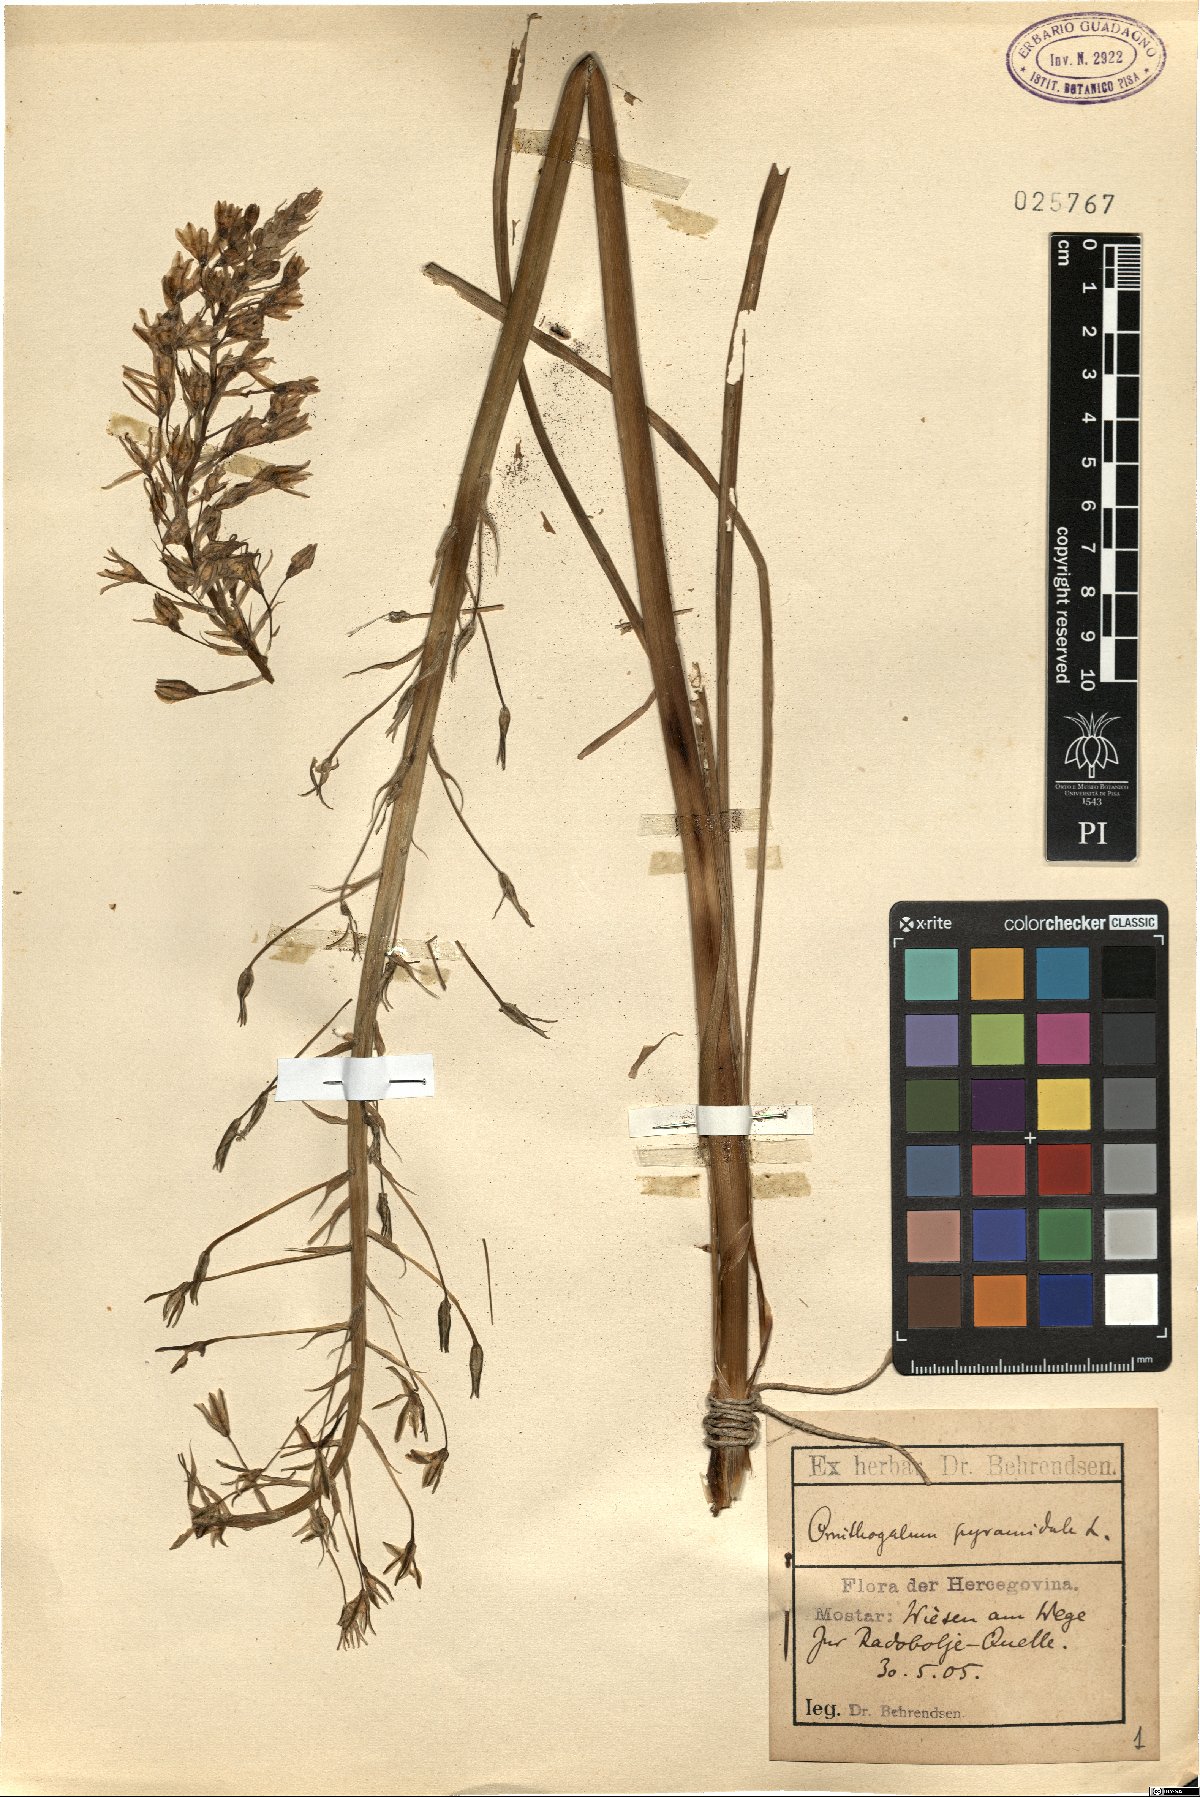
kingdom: Plantae
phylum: Tracheophyta
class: Liliopsida
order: Asparagales
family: Asparagaceae
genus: Ornithogalum
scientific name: Ornithogalum pyramidale
